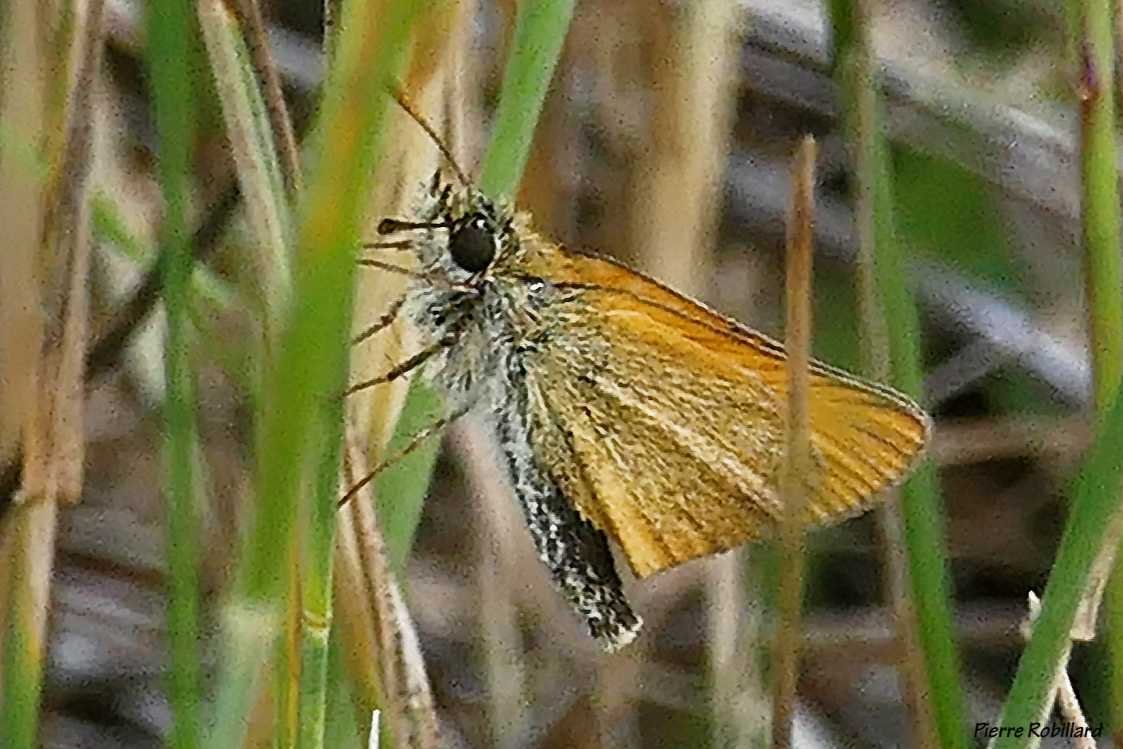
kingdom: Animalia
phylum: Arthropoda
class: Insecta
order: Lepidoptera
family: Hesperiidae
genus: Thymelicus
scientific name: Thymelicus lineola
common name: European Skipper
